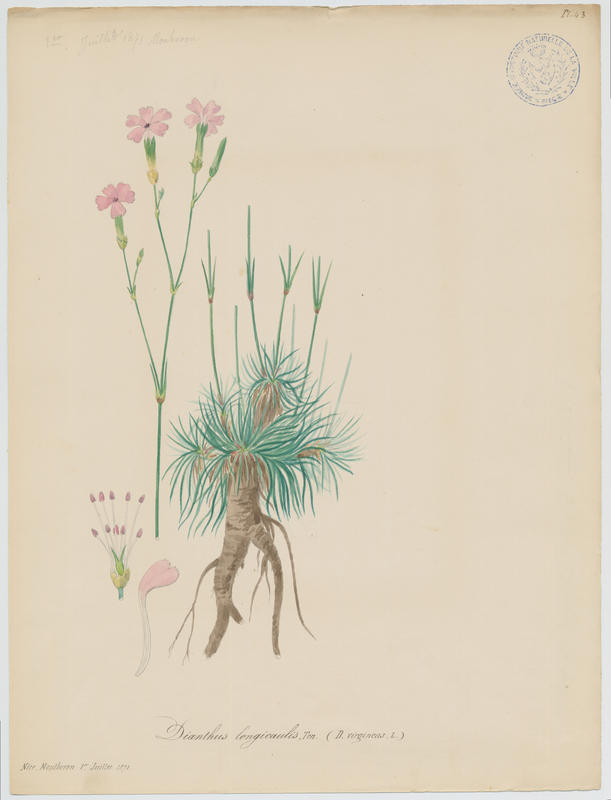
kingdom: Plantae
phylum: Tracheophyta
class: Magnoliopsida
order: Caryophyllales
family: Caryophyllaceae
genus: Dianthus
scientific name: Dianthus virgineus
